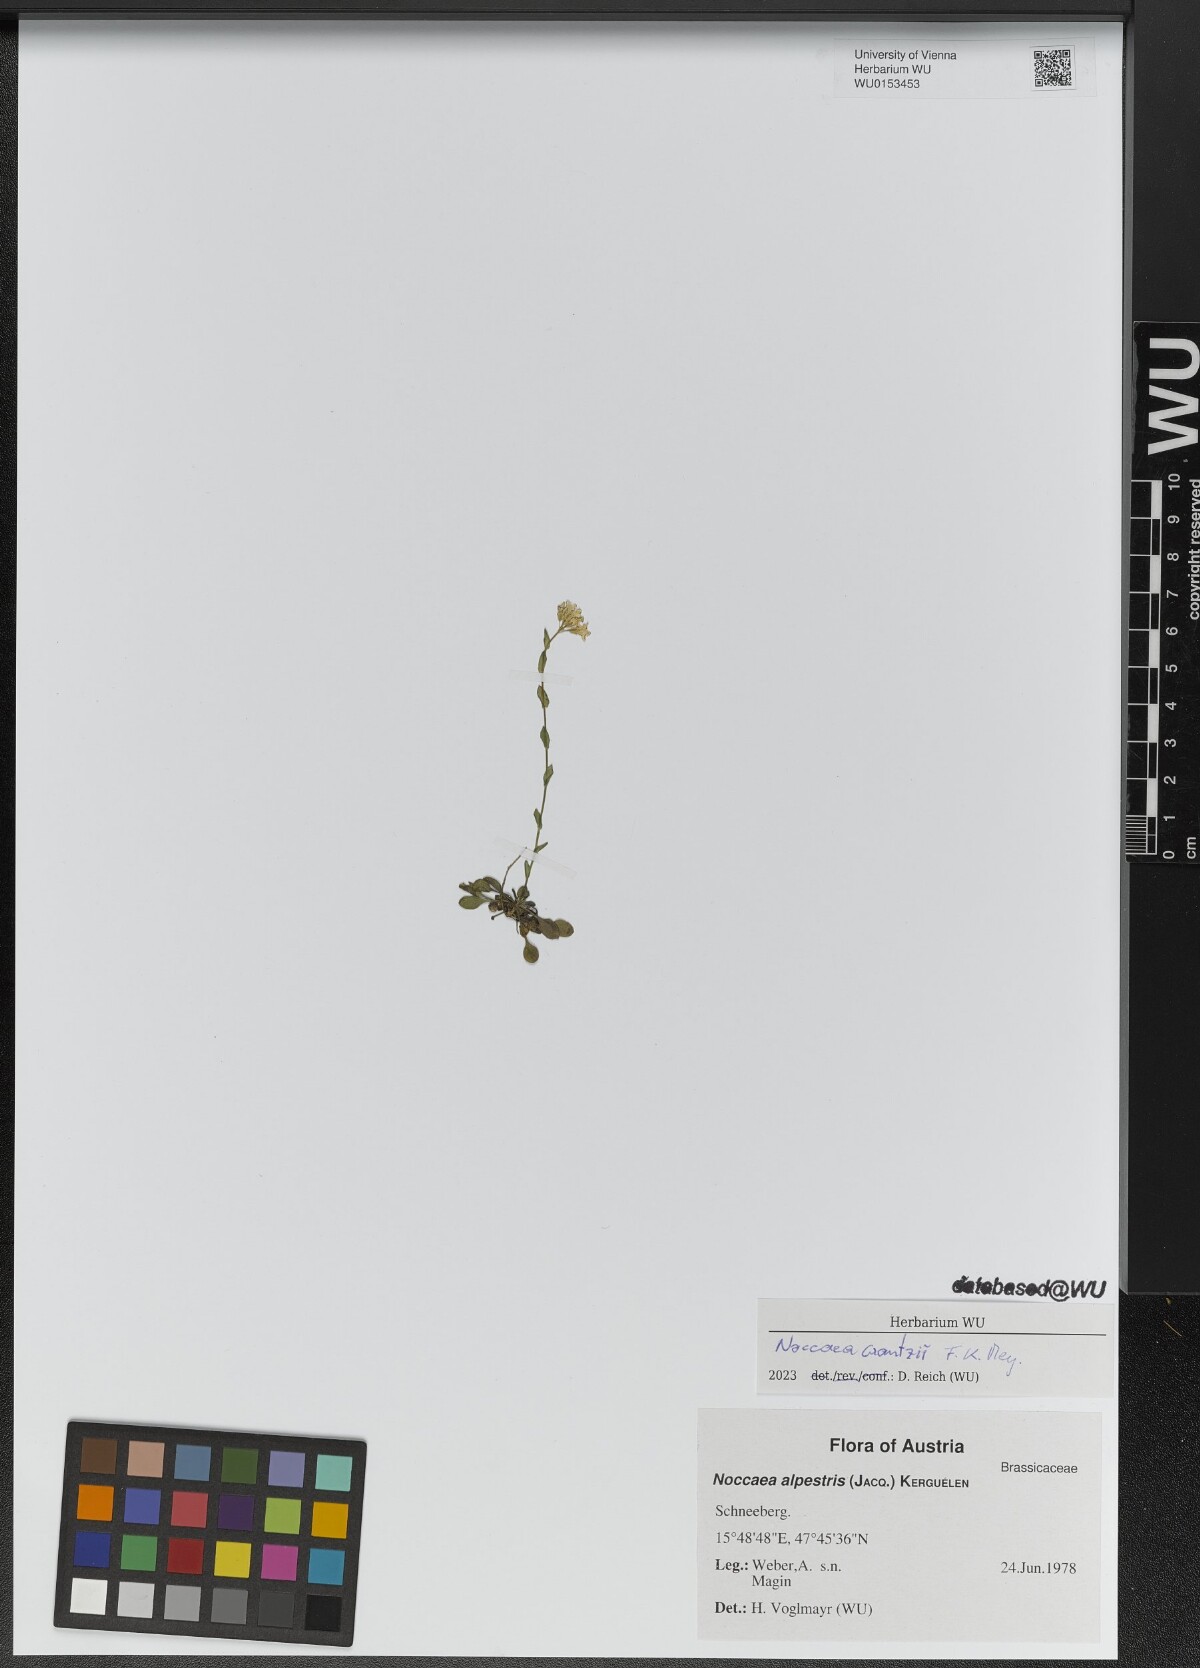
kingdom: Plantae
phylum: Tracheophyta
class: Magnoliopsida
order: Brassicales
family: Brassicaceae
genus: Noccaea
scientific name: Noccaea alpestris
